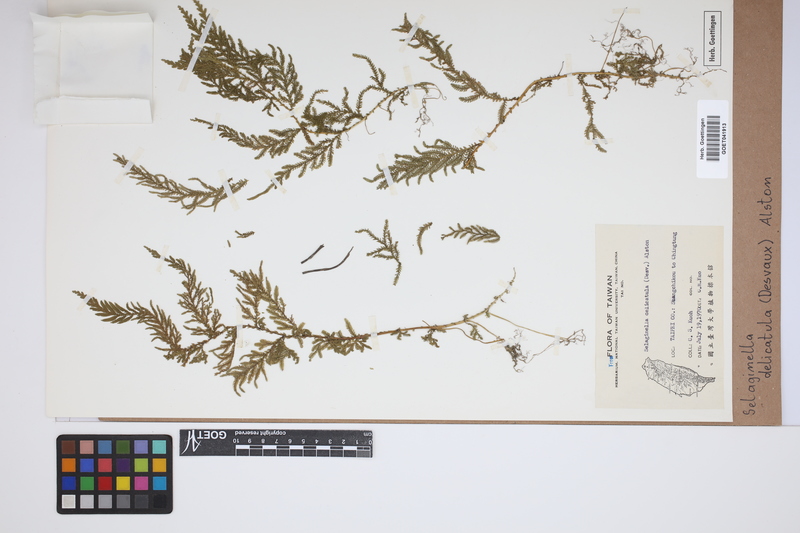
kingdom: Plantae
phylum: Tracheophyta
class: Lycopodiopsida
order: Selaginellales
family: Selaginellaceae
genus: Selaginella
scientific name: Selaginella delicatula
